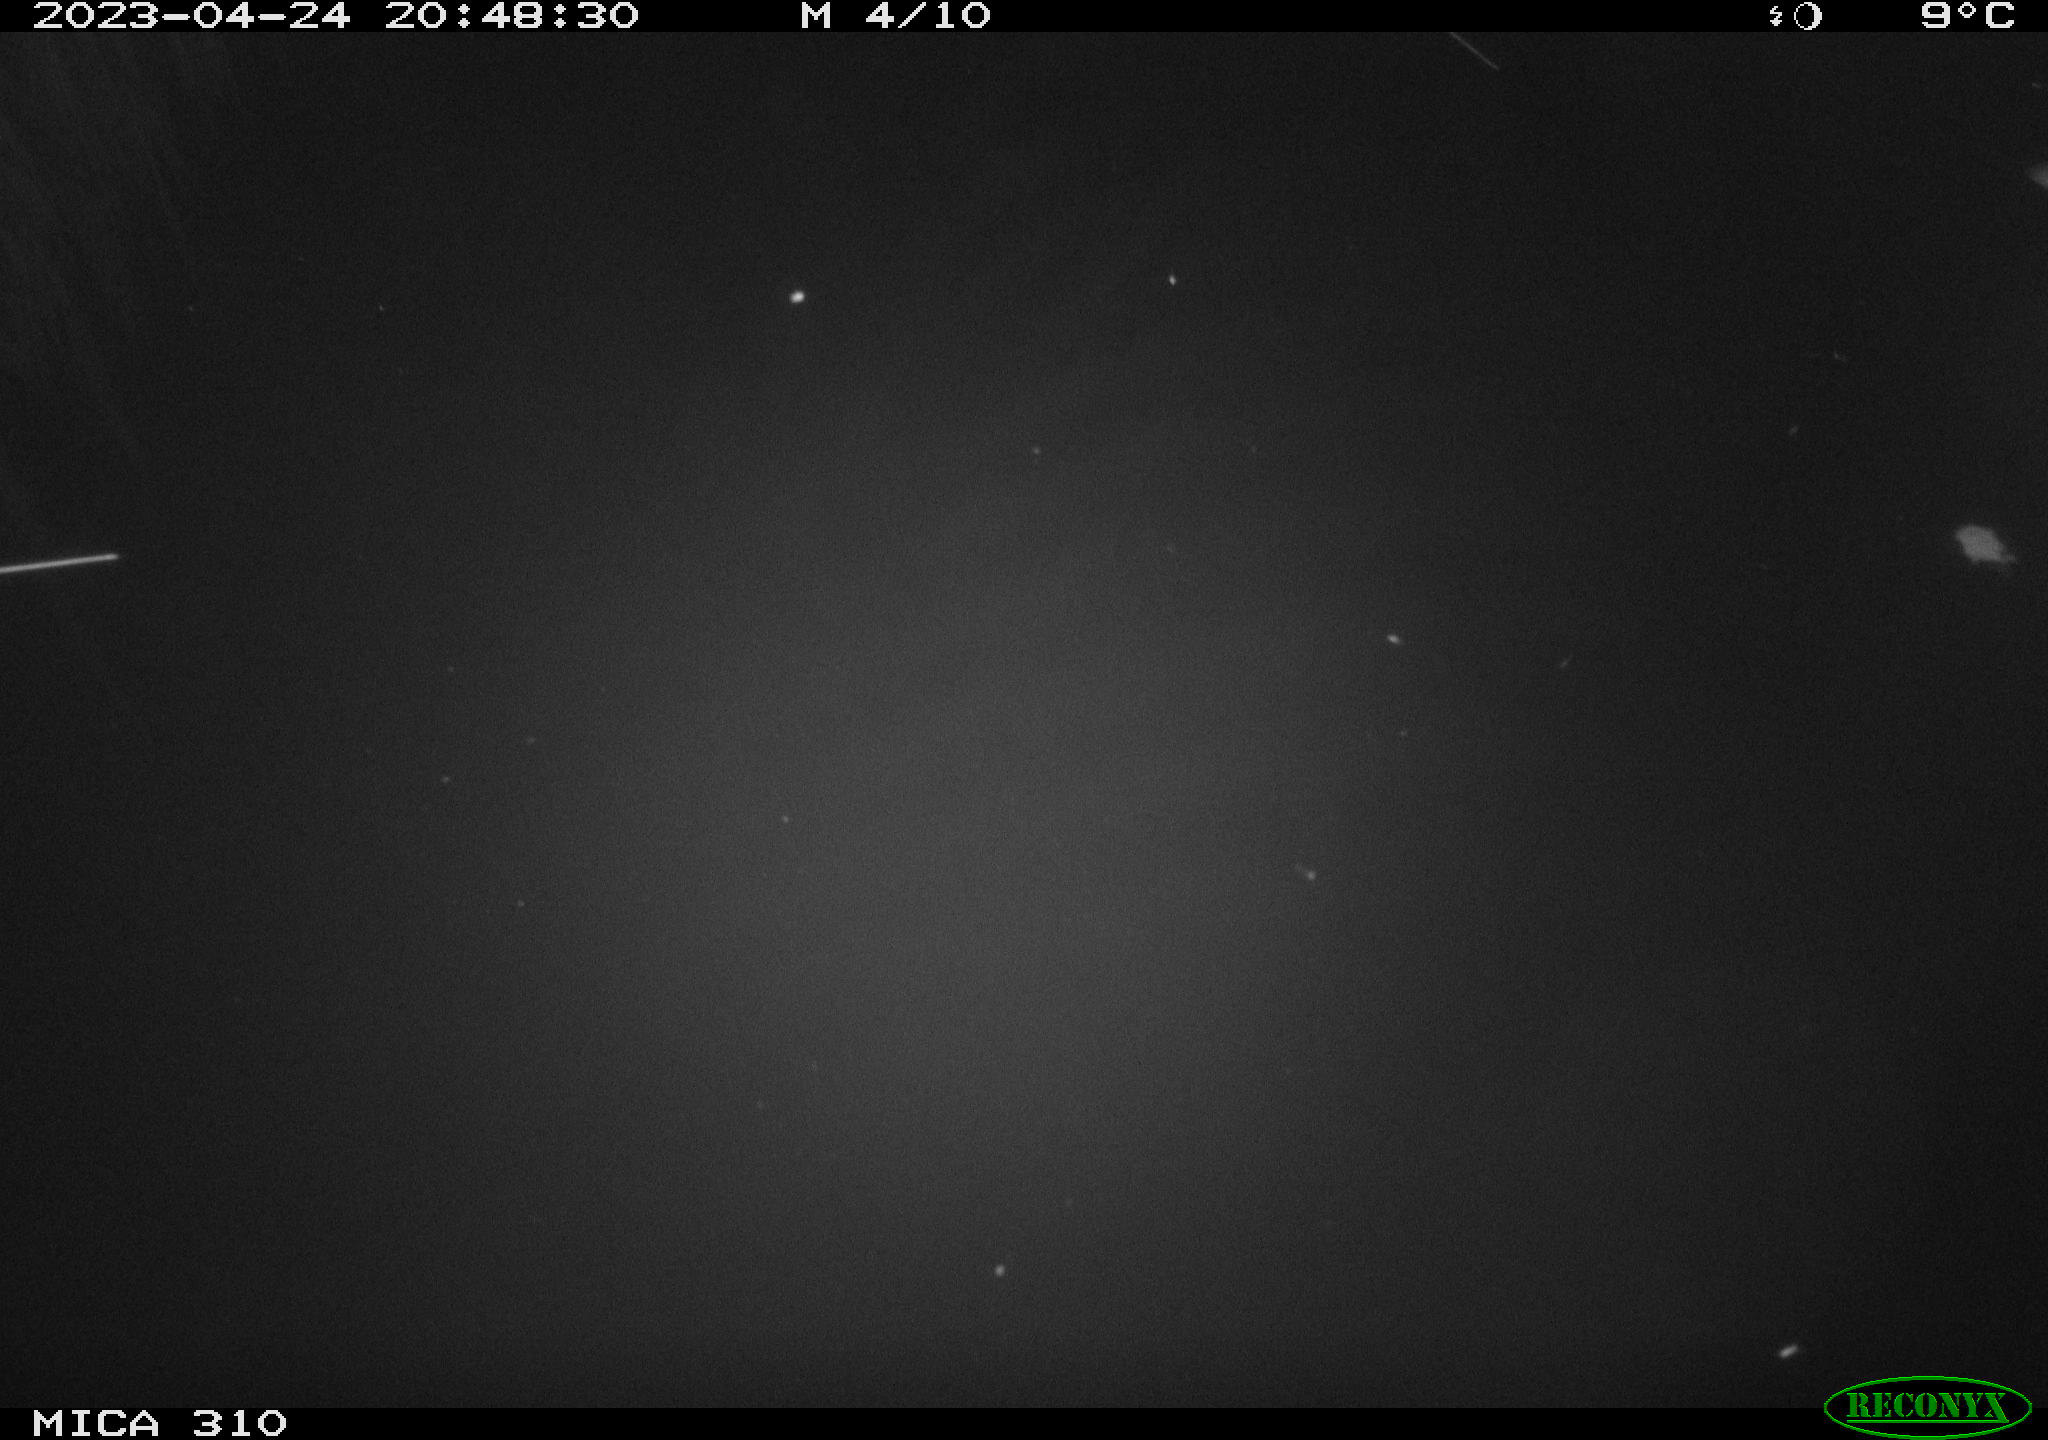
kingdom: Animalia
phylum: Chordata
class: Aves
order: Anseriformes
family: Anatidae
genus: Anas
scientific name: Anas
